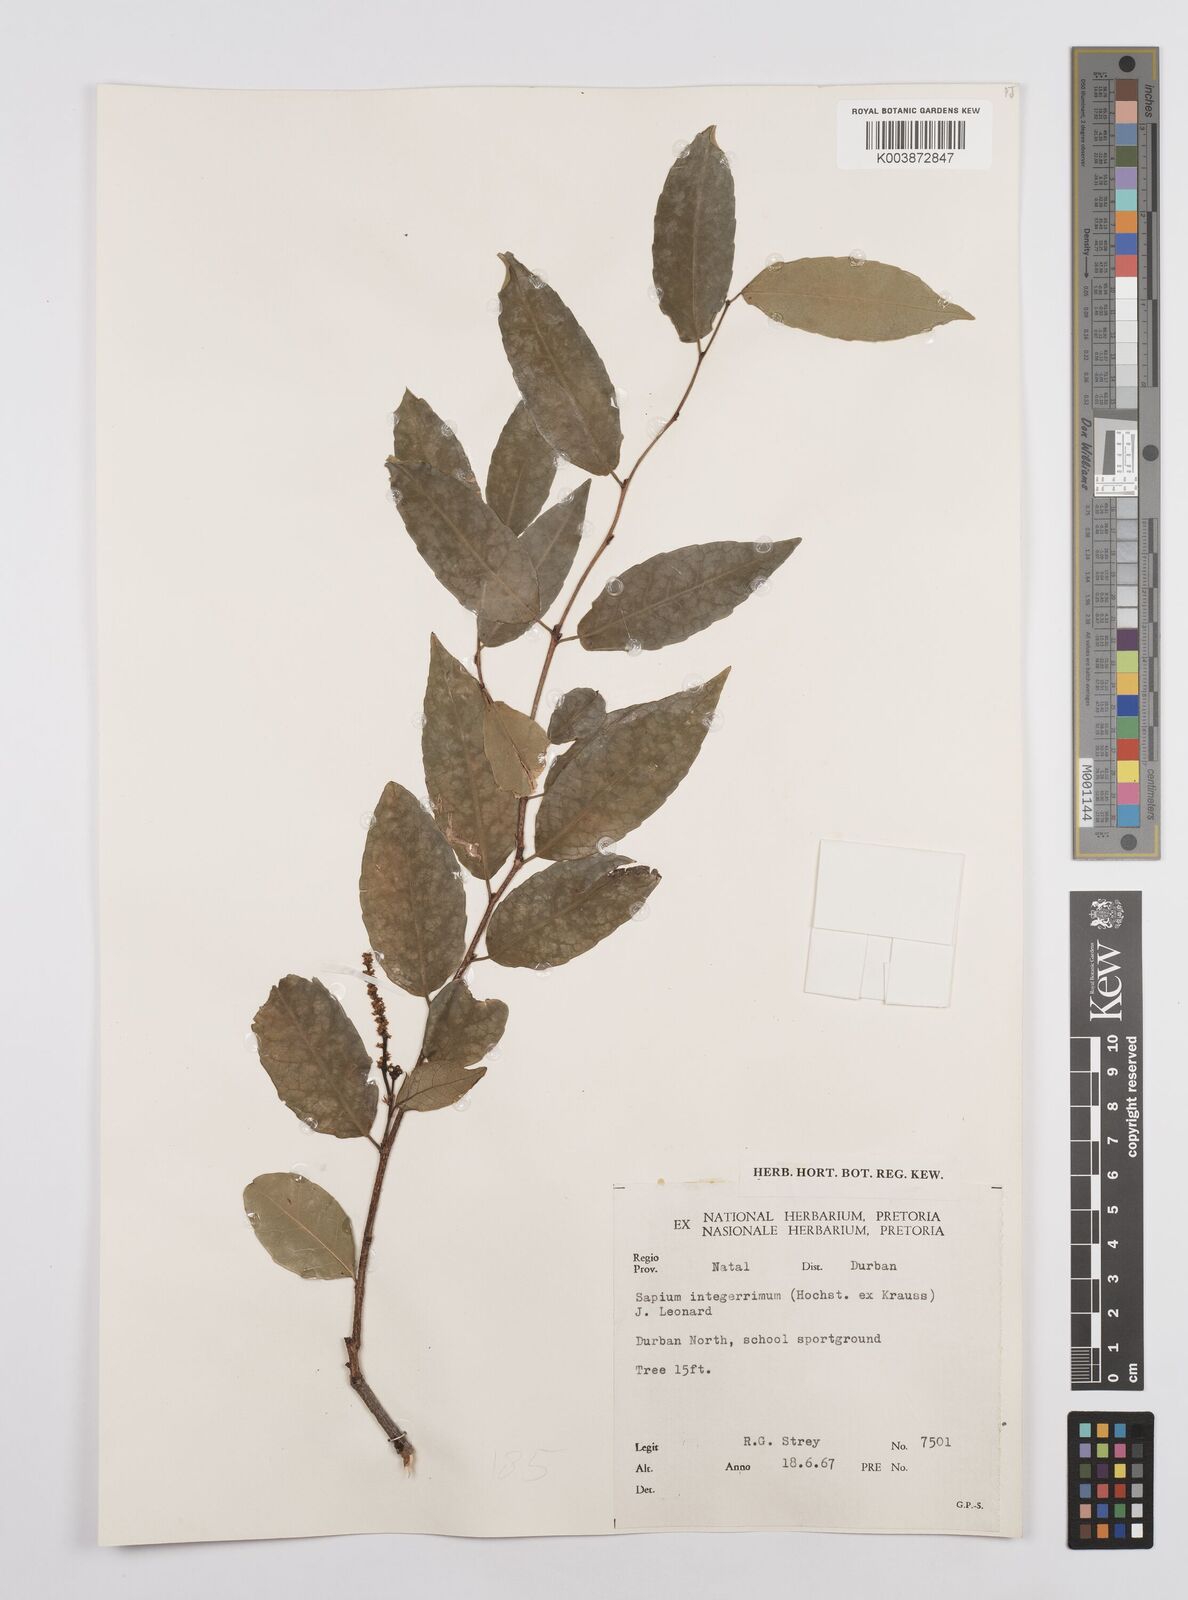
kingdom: Plantae
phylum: Tracheophyta
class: Magnoliopsida
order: Malpighiales
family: Euphorbiaceae
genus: Sclerocroton
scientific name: Sclerocroton integerrimus
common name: Duiker berry
